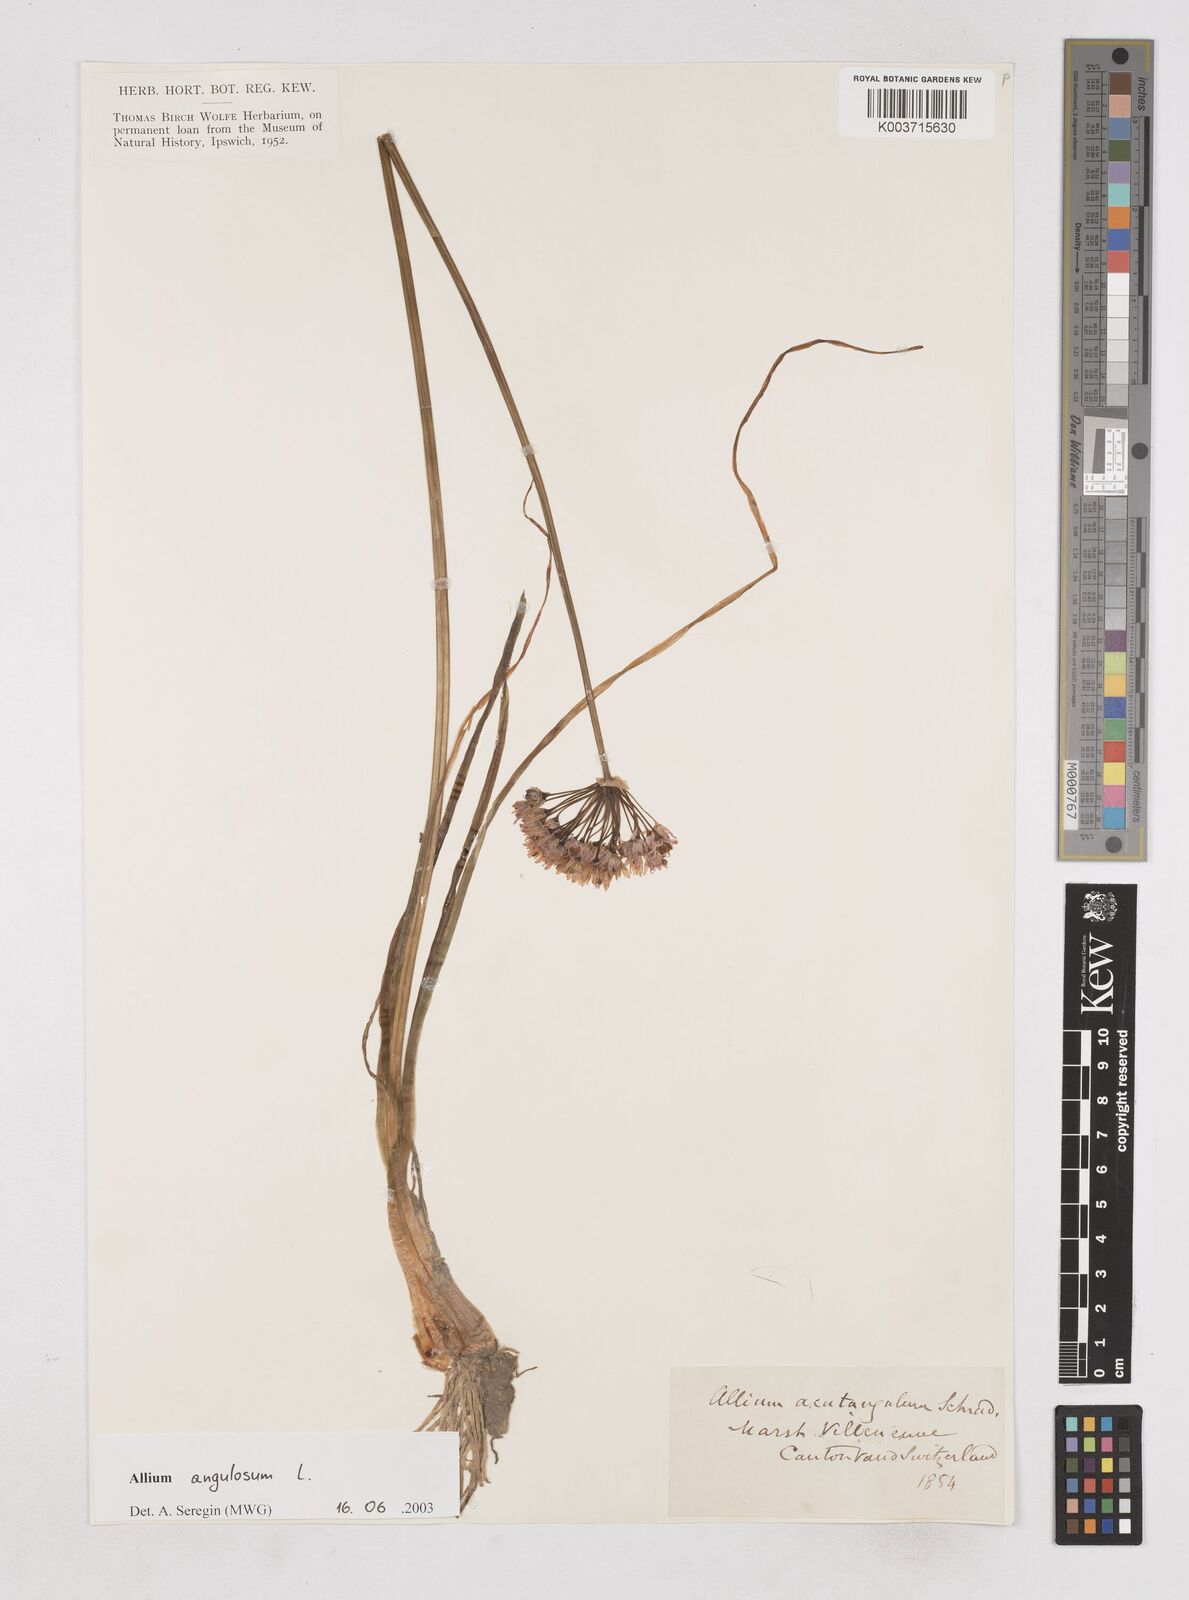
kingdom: Plantae
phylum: Tracheophyta
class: Liliopsida
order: Asparagales
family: Amaryllidaceae
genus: Allium
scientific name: Allium angulosum
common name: Mouse garlic
